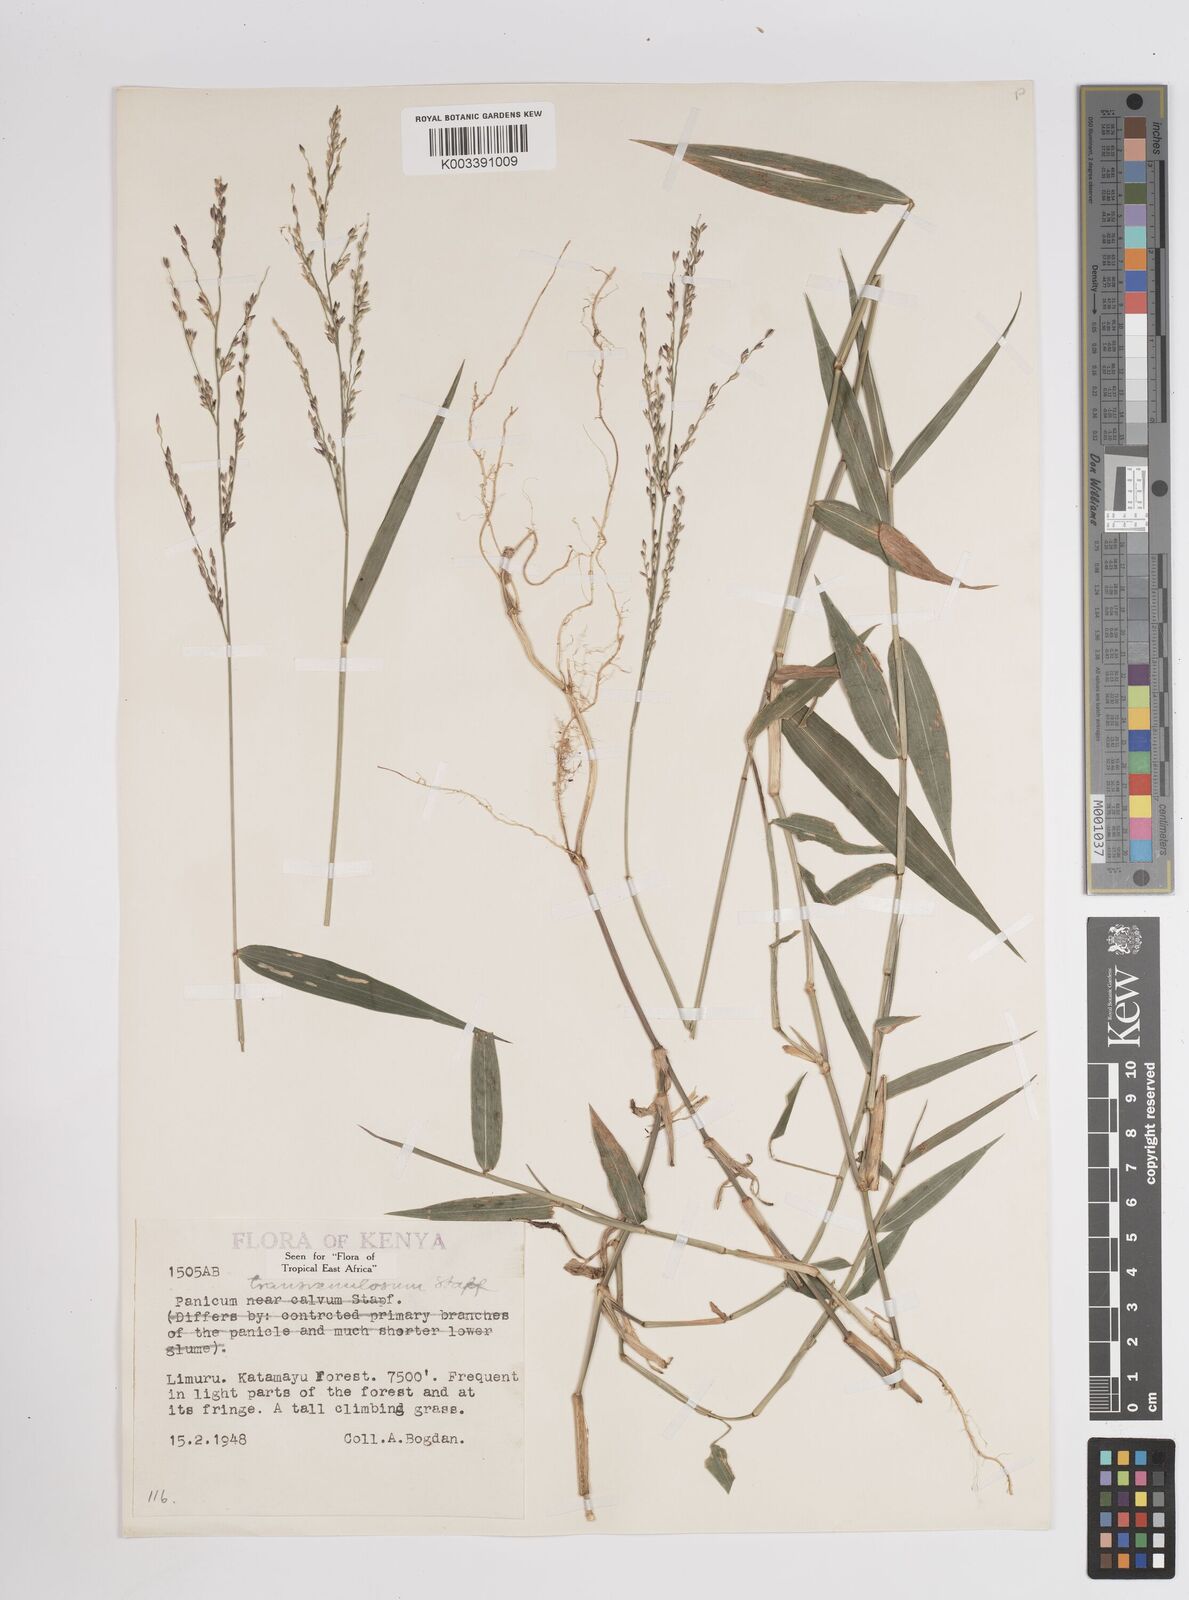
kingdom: Plantae
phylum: Tracheophyta
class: Liliopsida
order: Poales
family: Poaceae
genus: Panicum
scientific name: Panicum monticola
